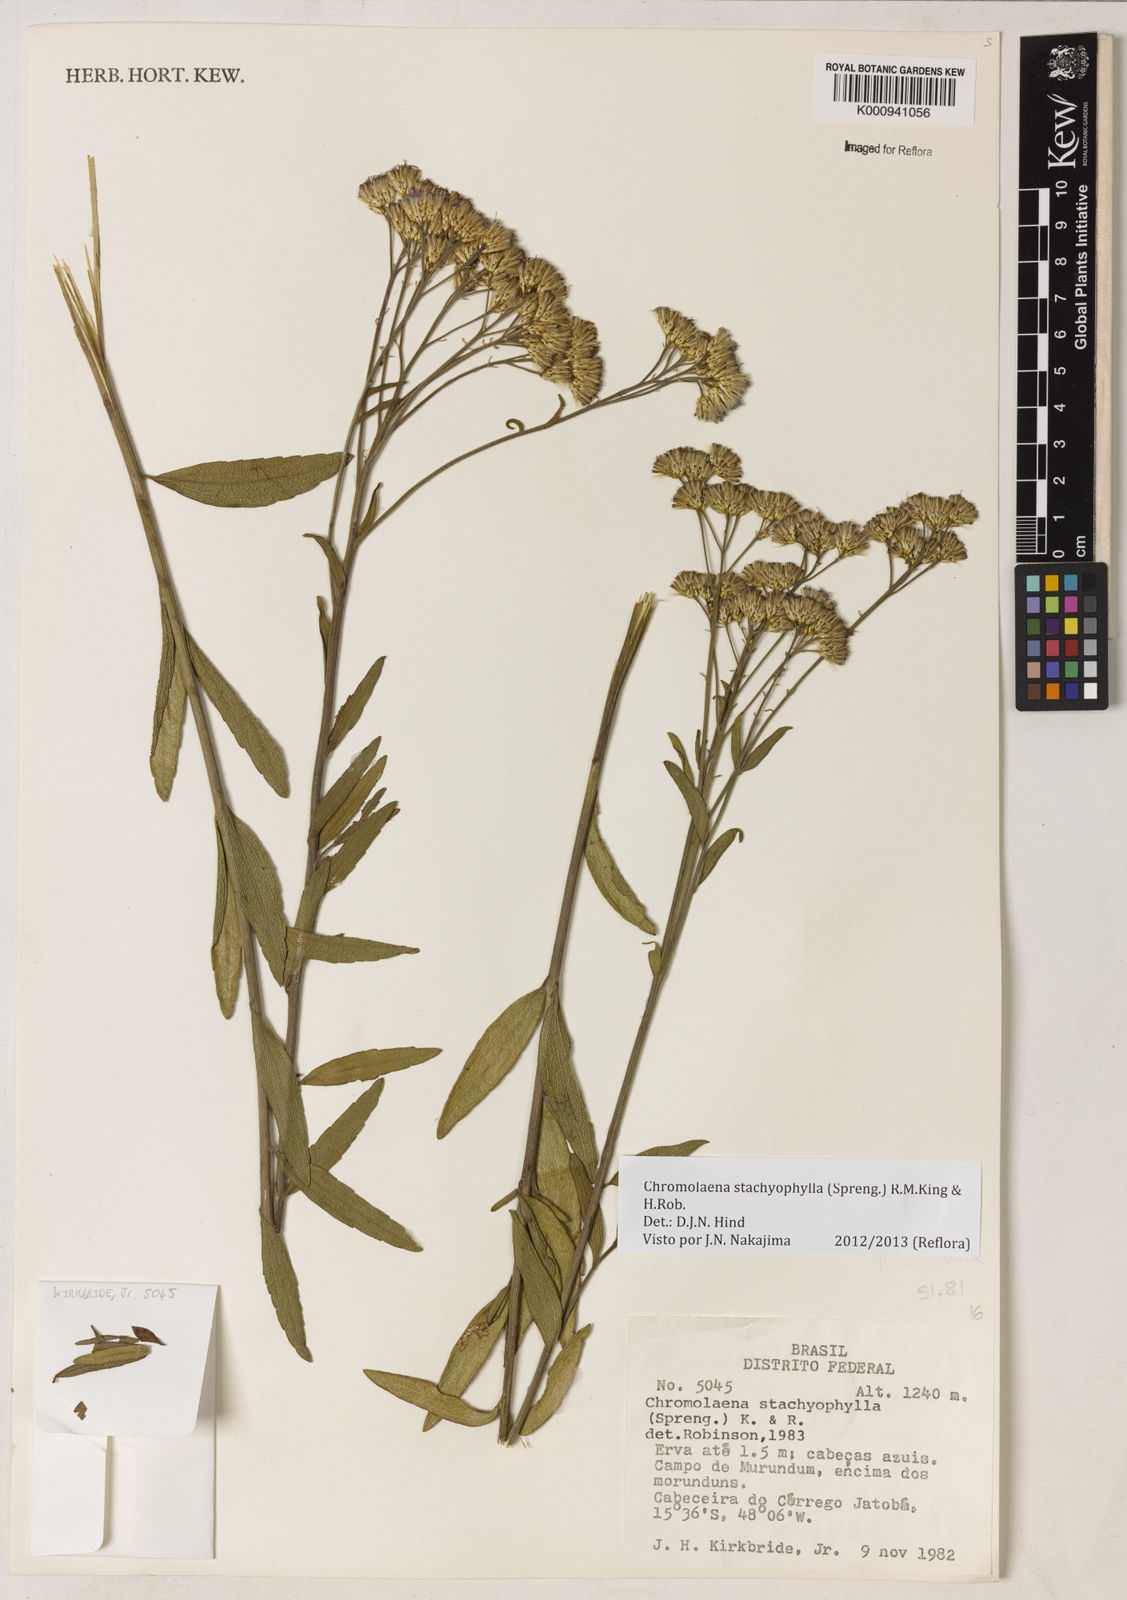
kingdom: Plantae
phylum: Tracheophyta
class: Magnoliopsida
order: Asterales
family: Asteraceae
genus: Chromolaena
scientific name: Chromolaena stachyophylla
